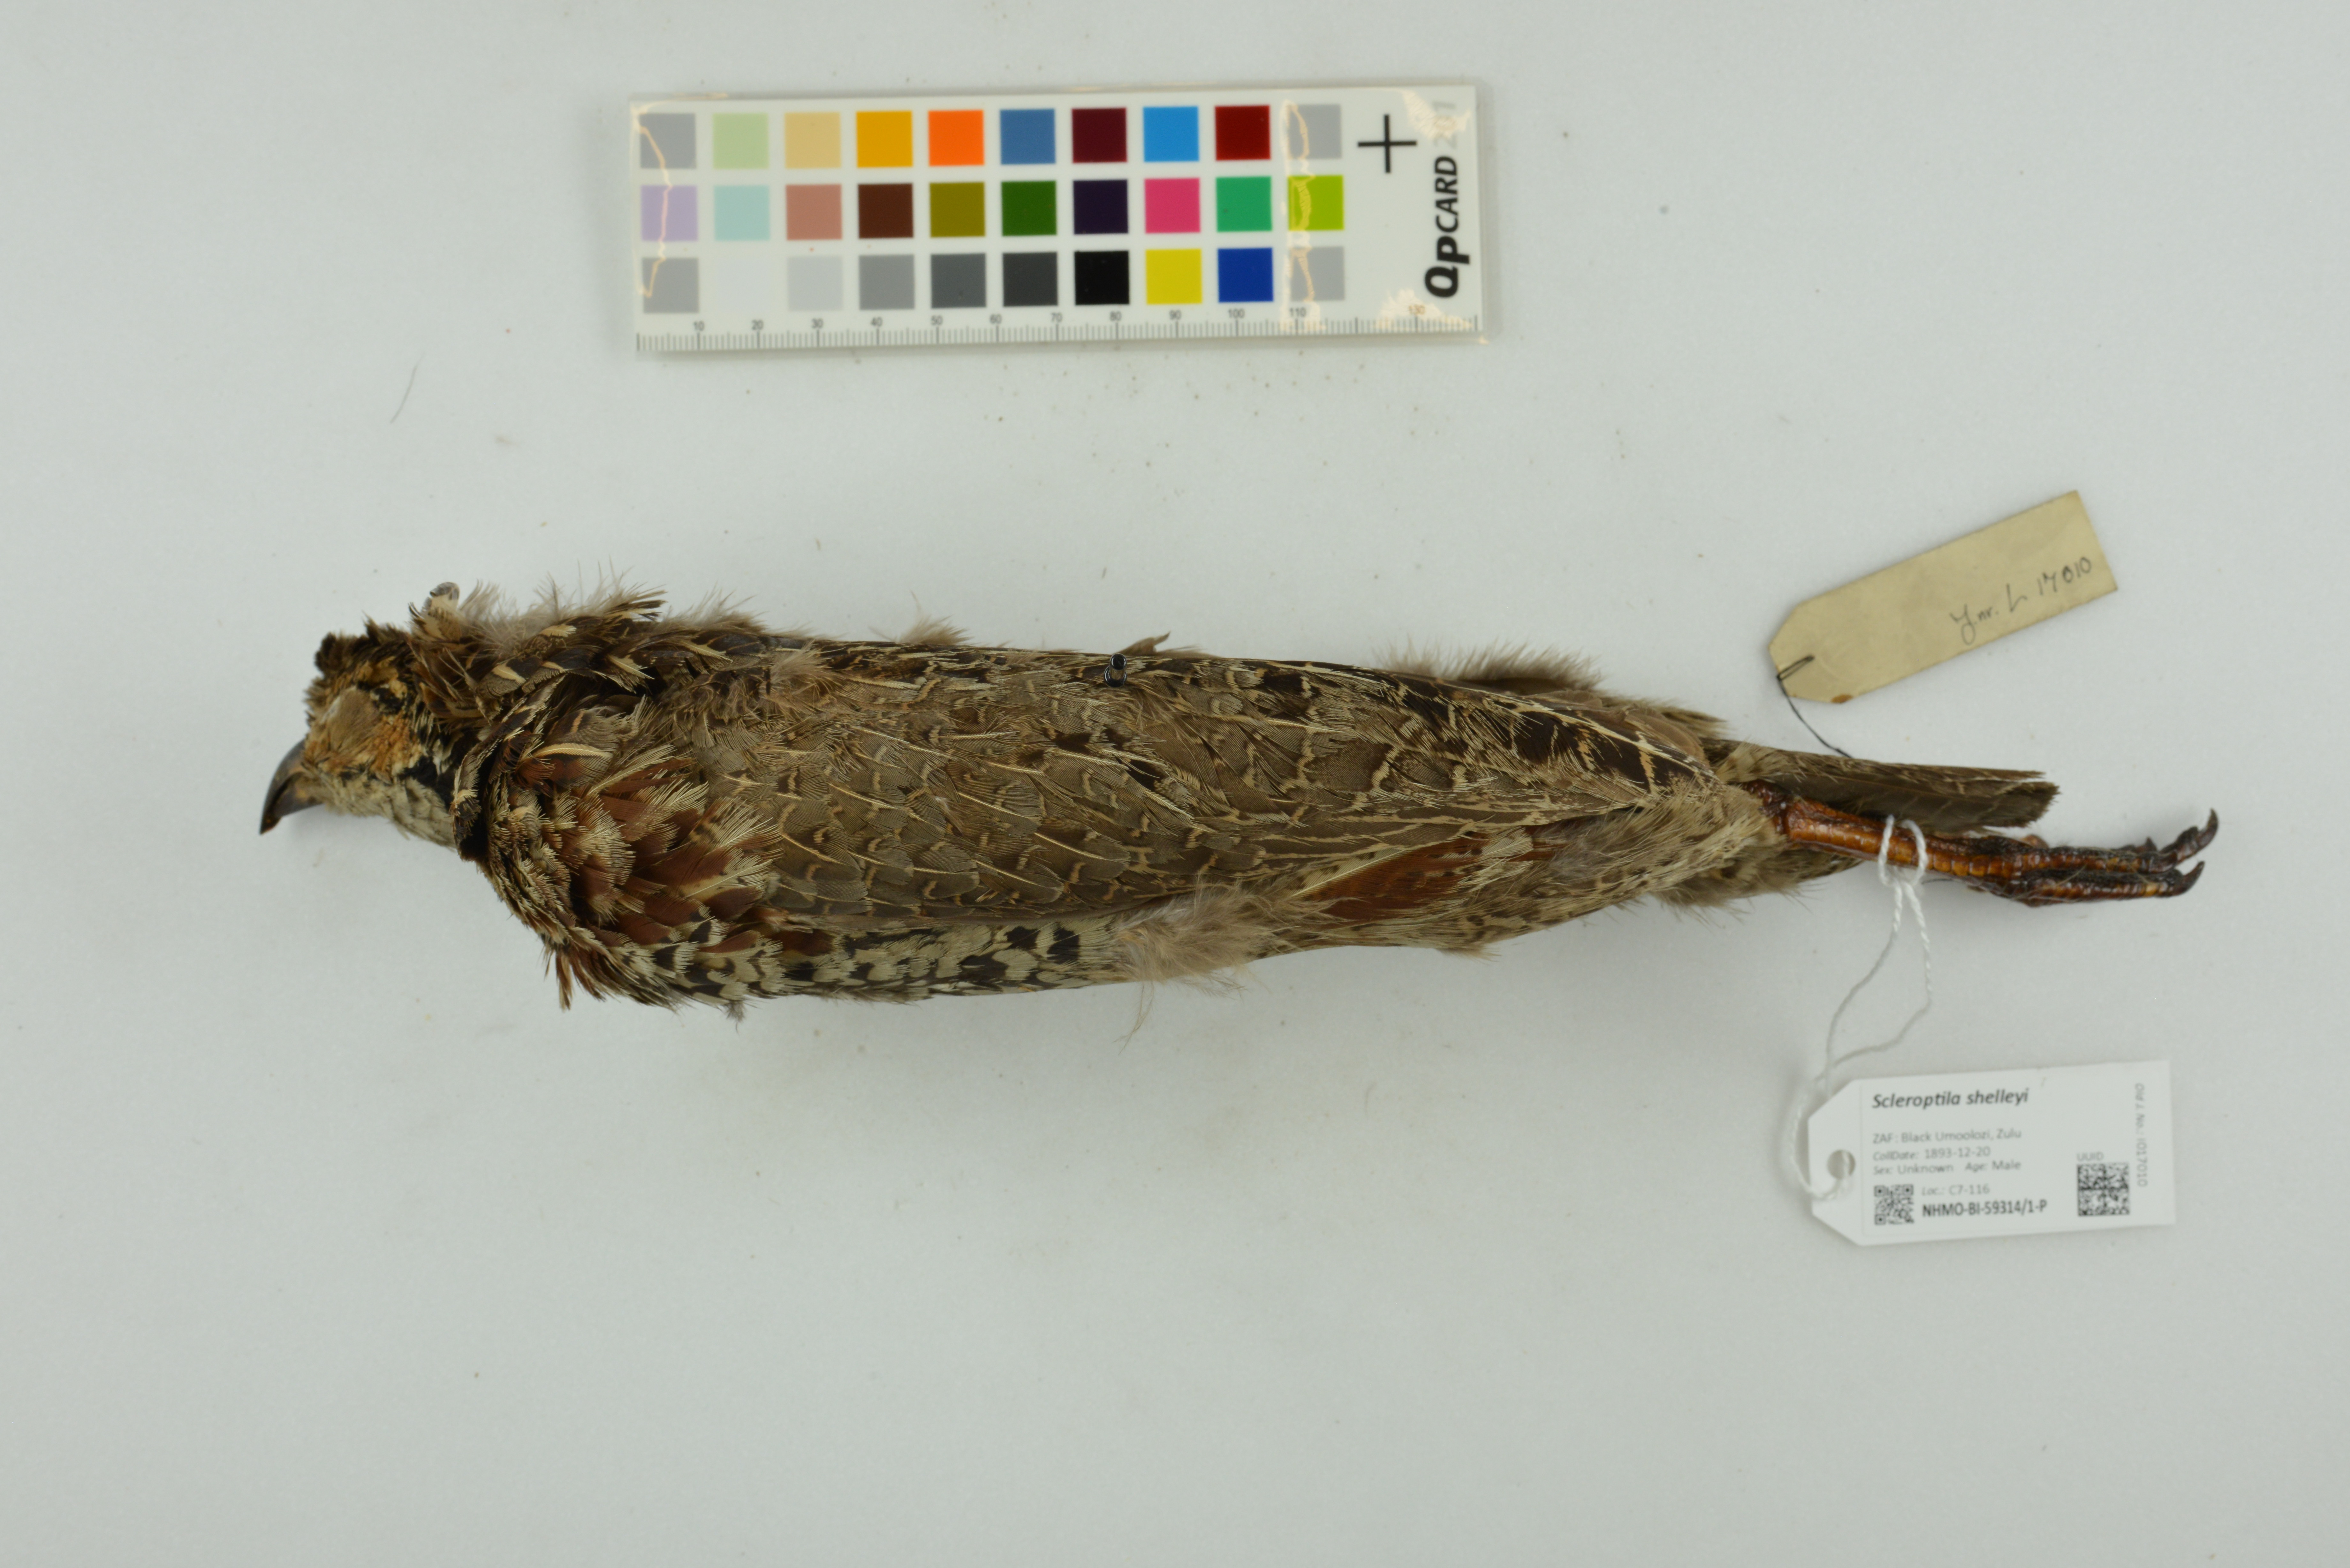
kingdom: Animalia
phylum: Chordata
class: Aves
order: Galliformes
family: Phasianidae
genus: Scleroptila
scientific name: Scleroptila shelleyi
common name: Shelley's francolin
